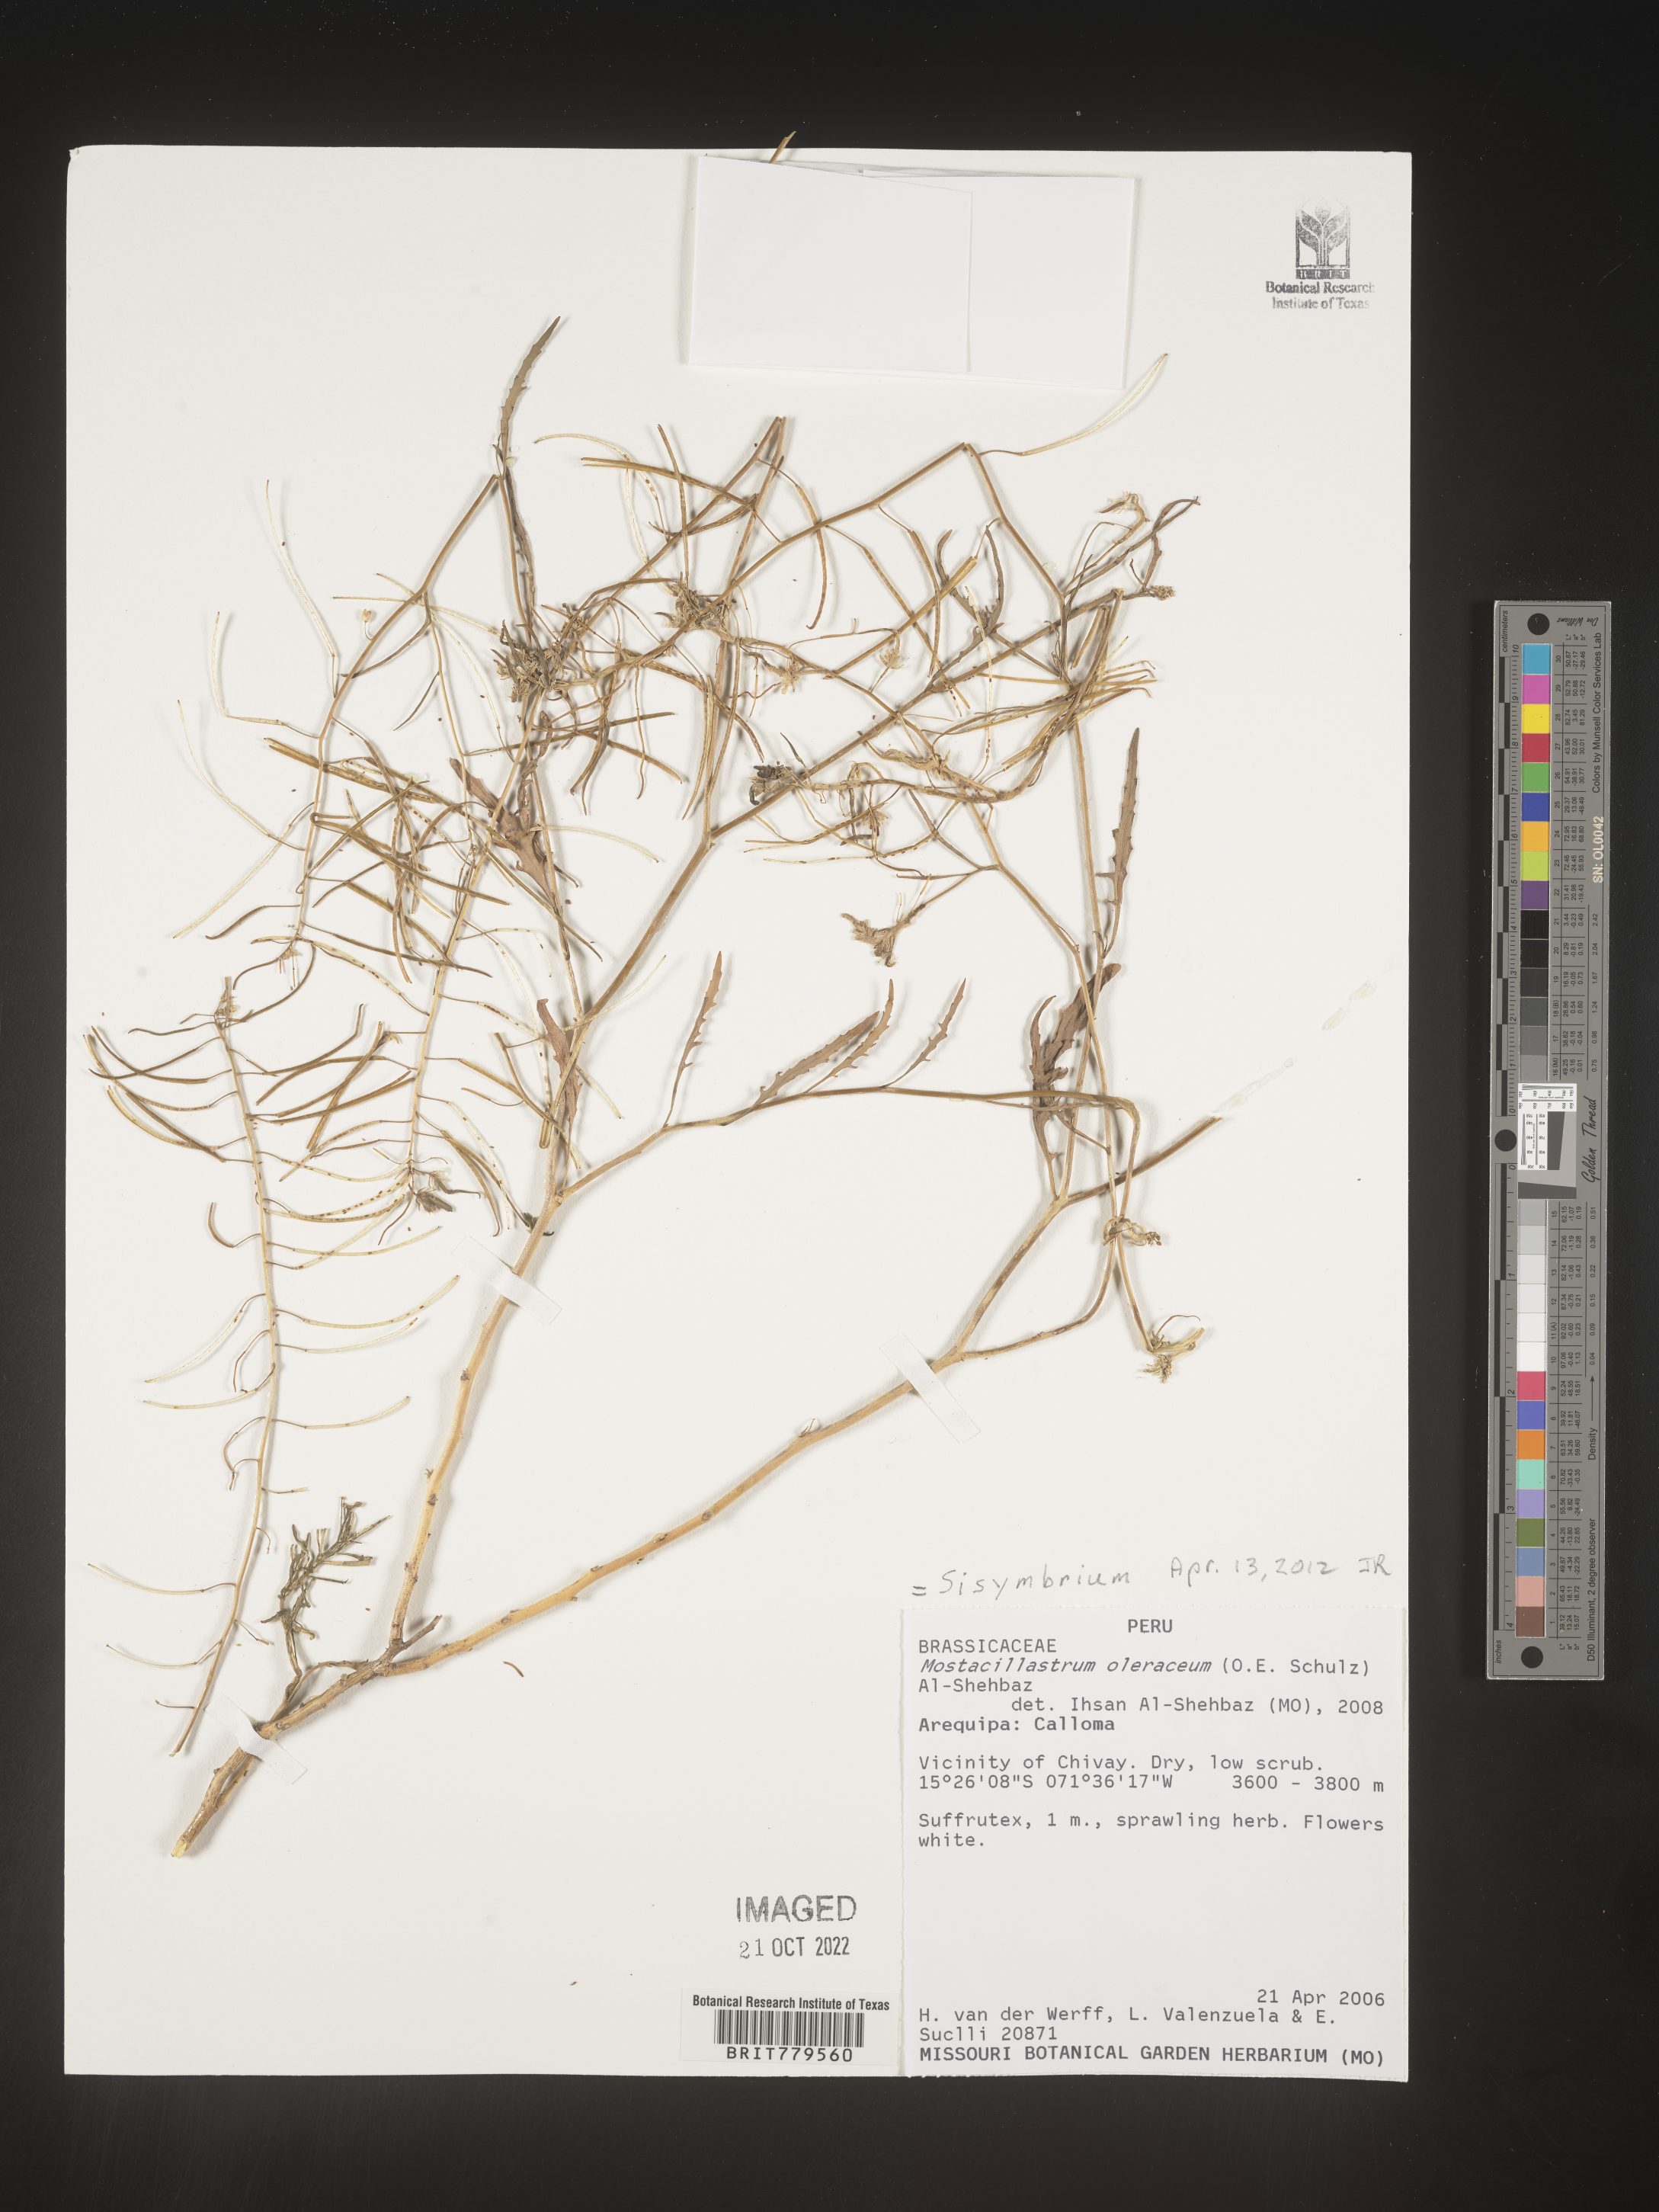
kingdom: Plantae
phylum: Tracheophyta
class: Magnoliopsida
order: Brassicales
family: Brassicaceae
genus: Sisymbrium
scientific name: Sisymbrium
